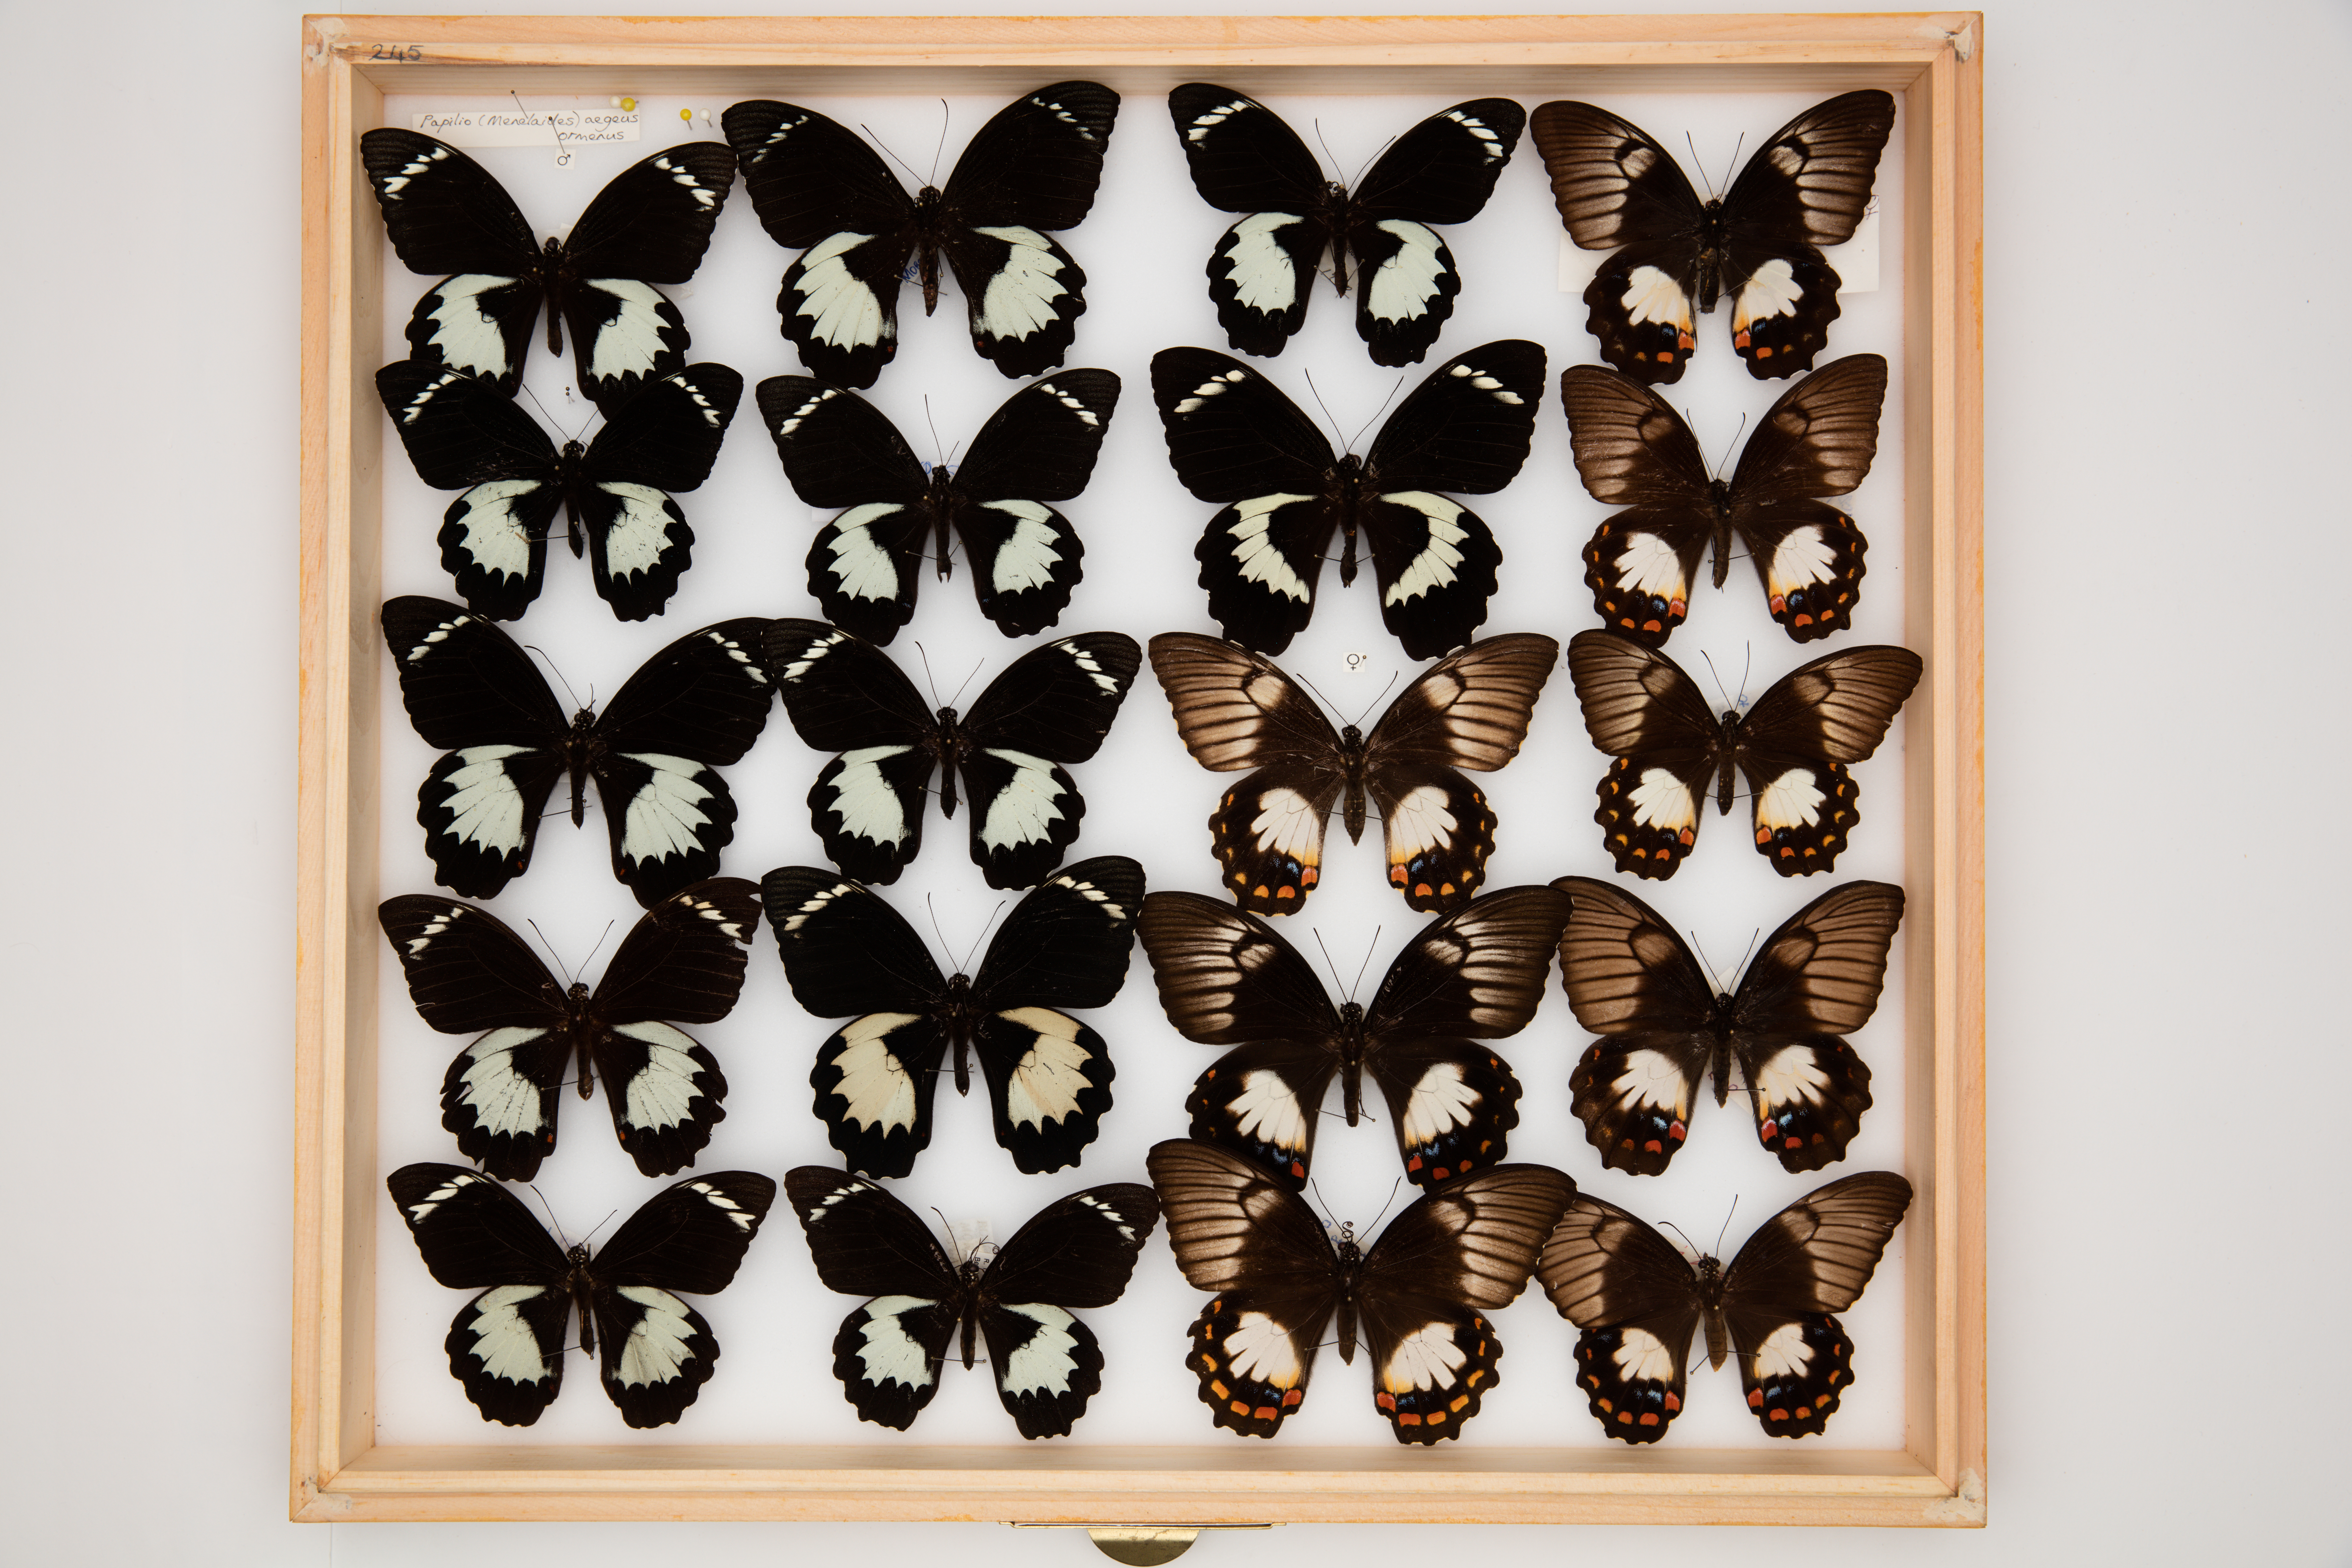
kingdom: Animalia
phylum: Arthropoda
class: Insecta
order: Lepidoptera
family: Papilionidae
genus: Papilio
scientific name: Papilio aegeus
